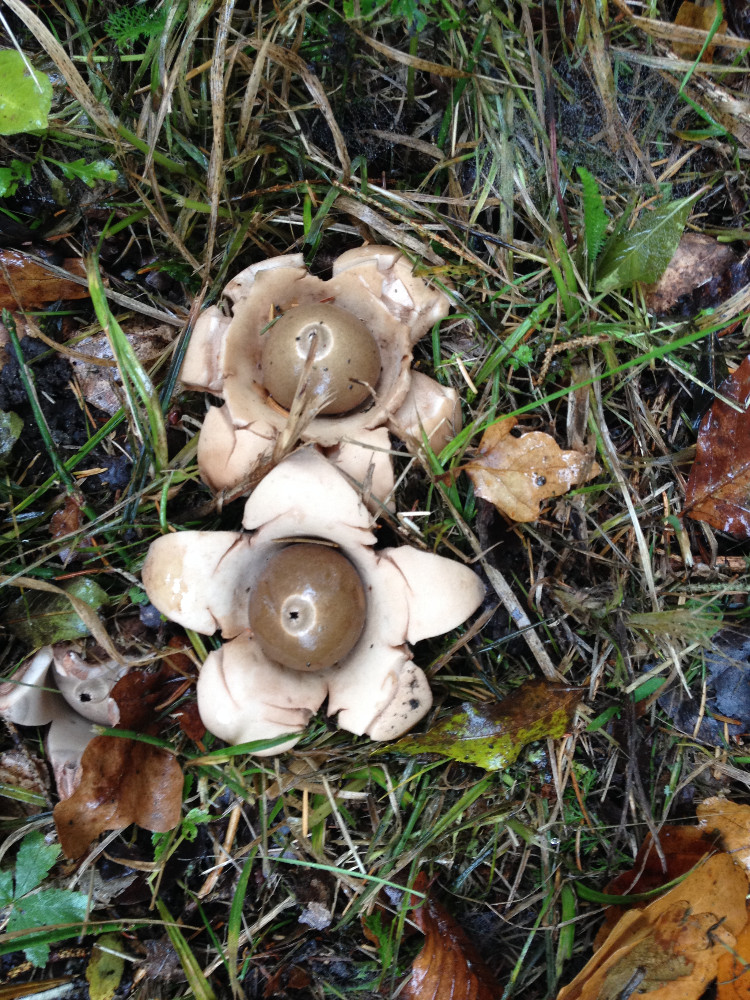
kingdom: Fungi
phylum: Basidiomycota
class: Agaricomycetes
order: Geastrales
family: Geastraceae
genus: Geastrum
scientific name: Geastrum michelianum
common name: kødet stjernebold
